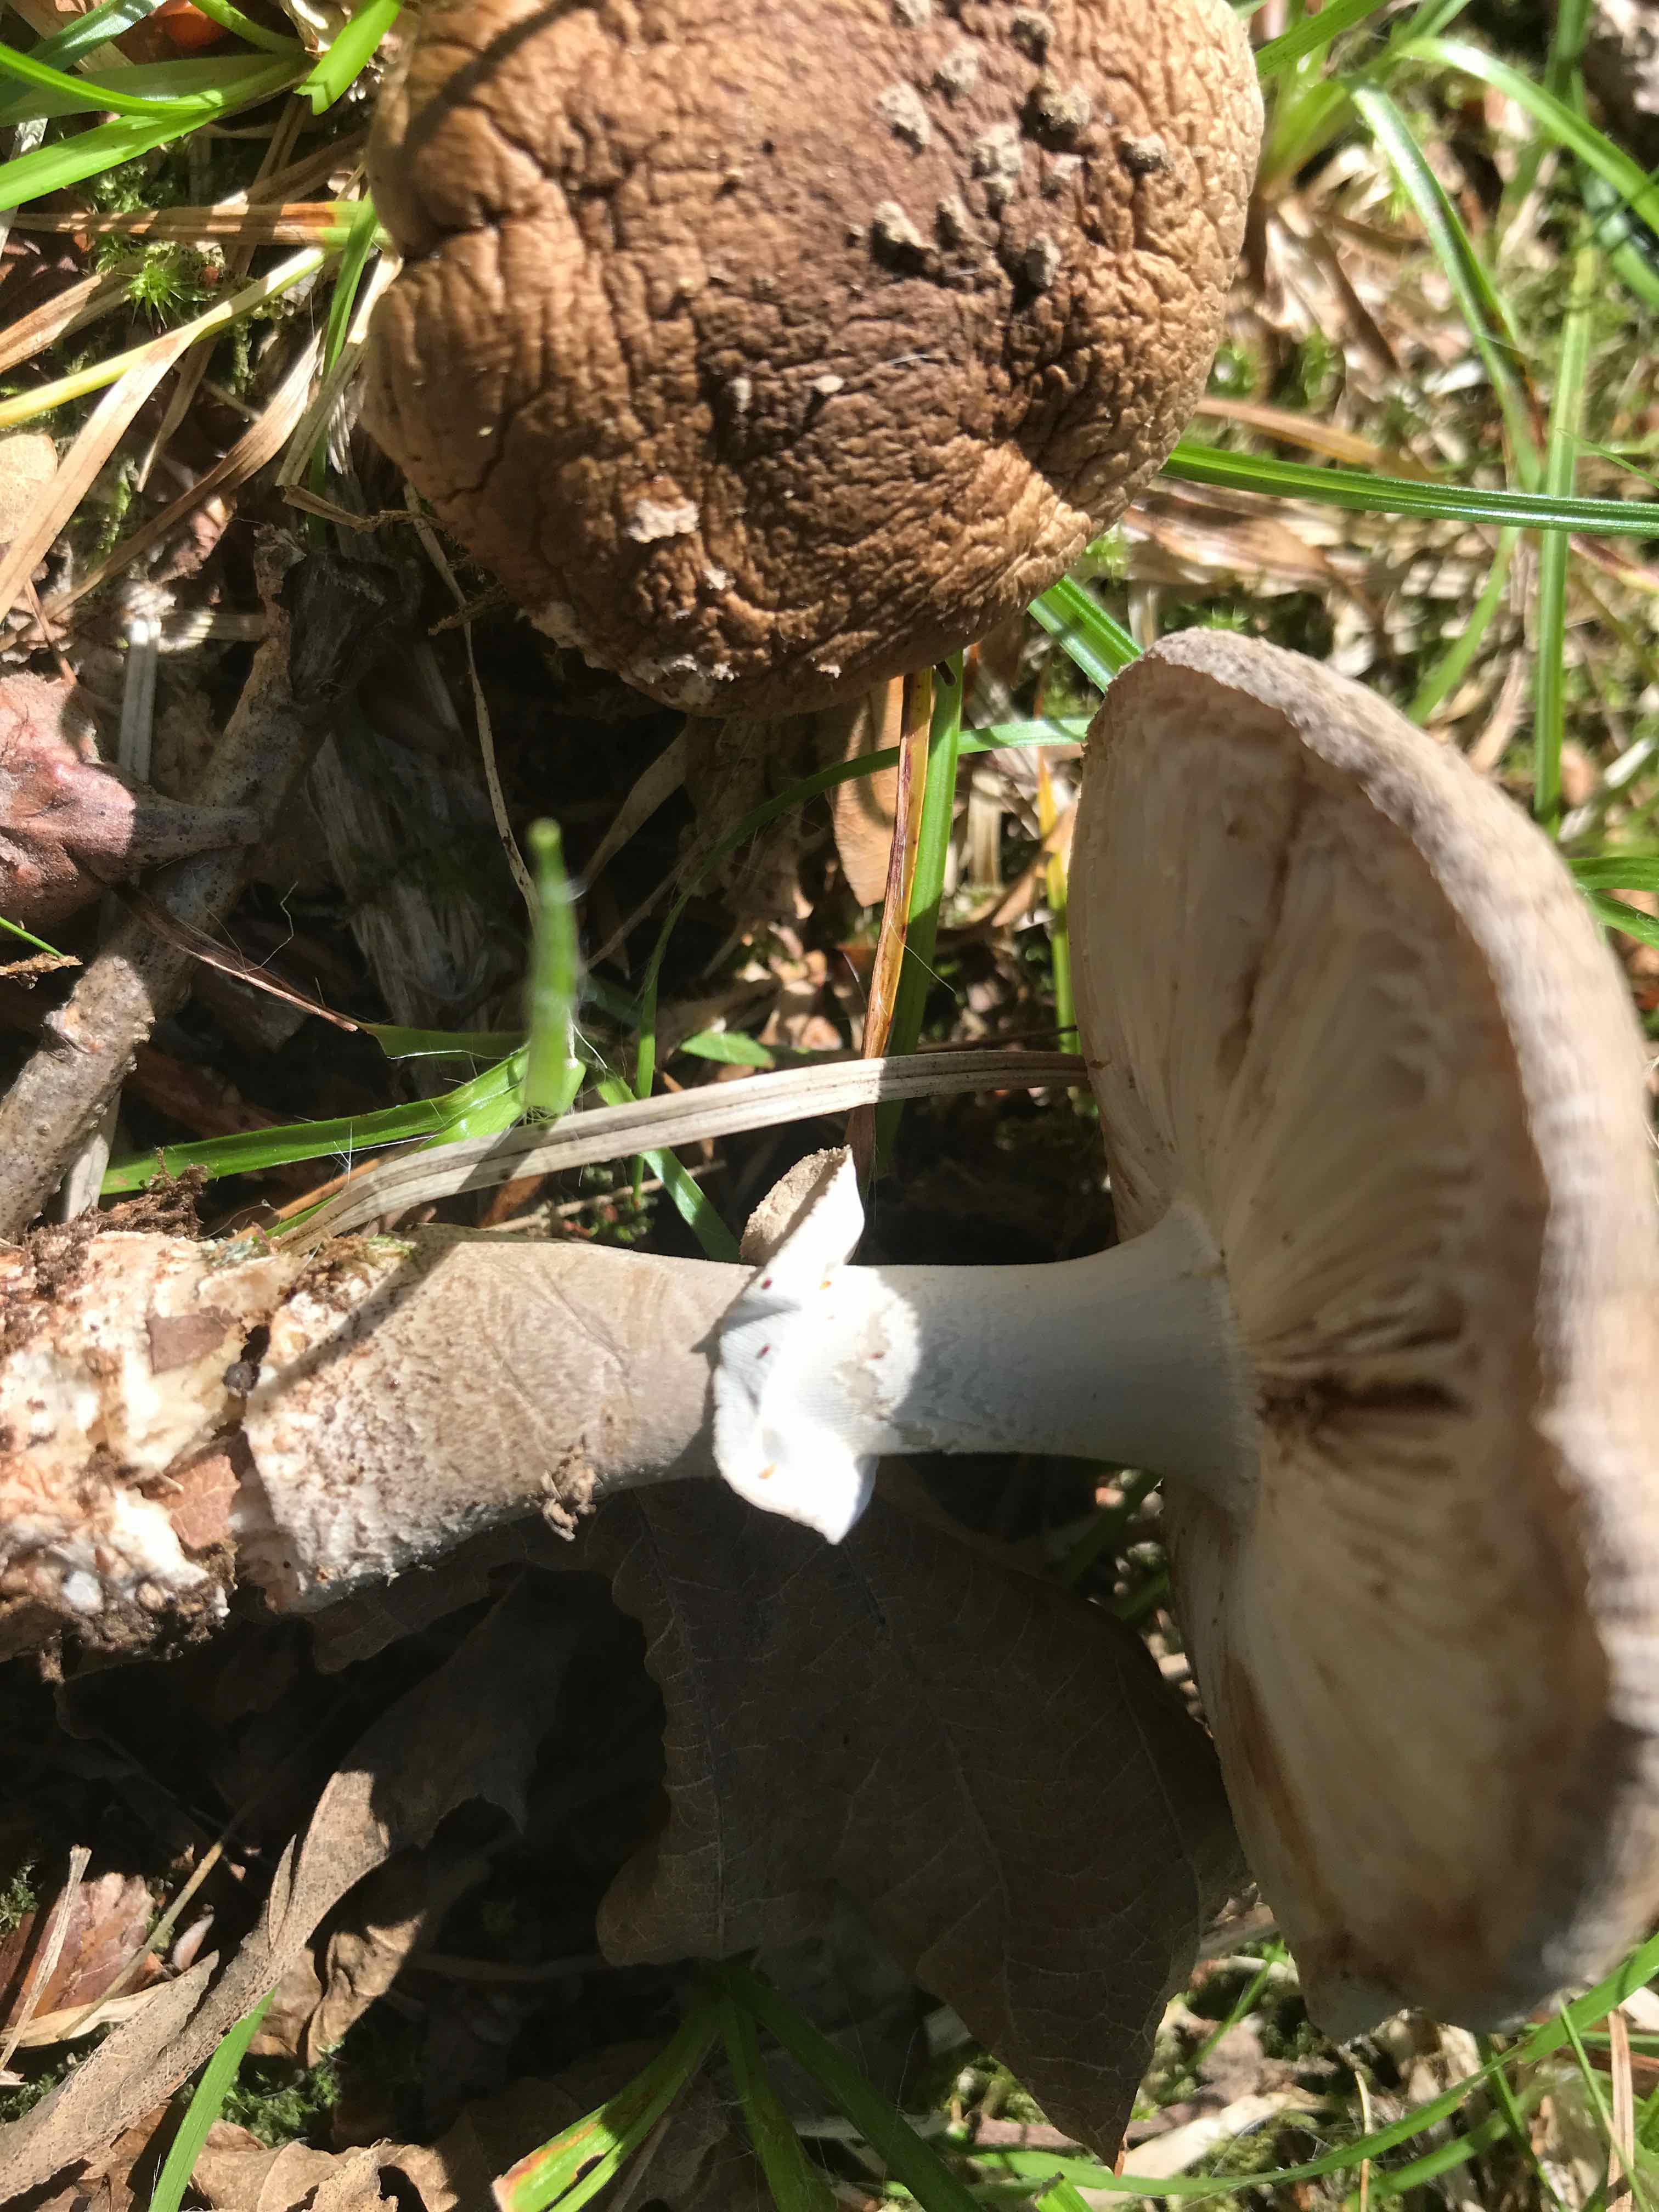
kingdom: Fungi
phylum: Basidiomycota
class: Agaricomycetes
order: Agaricales
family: Amanitaceae
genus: Amanita
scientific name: Amanita
